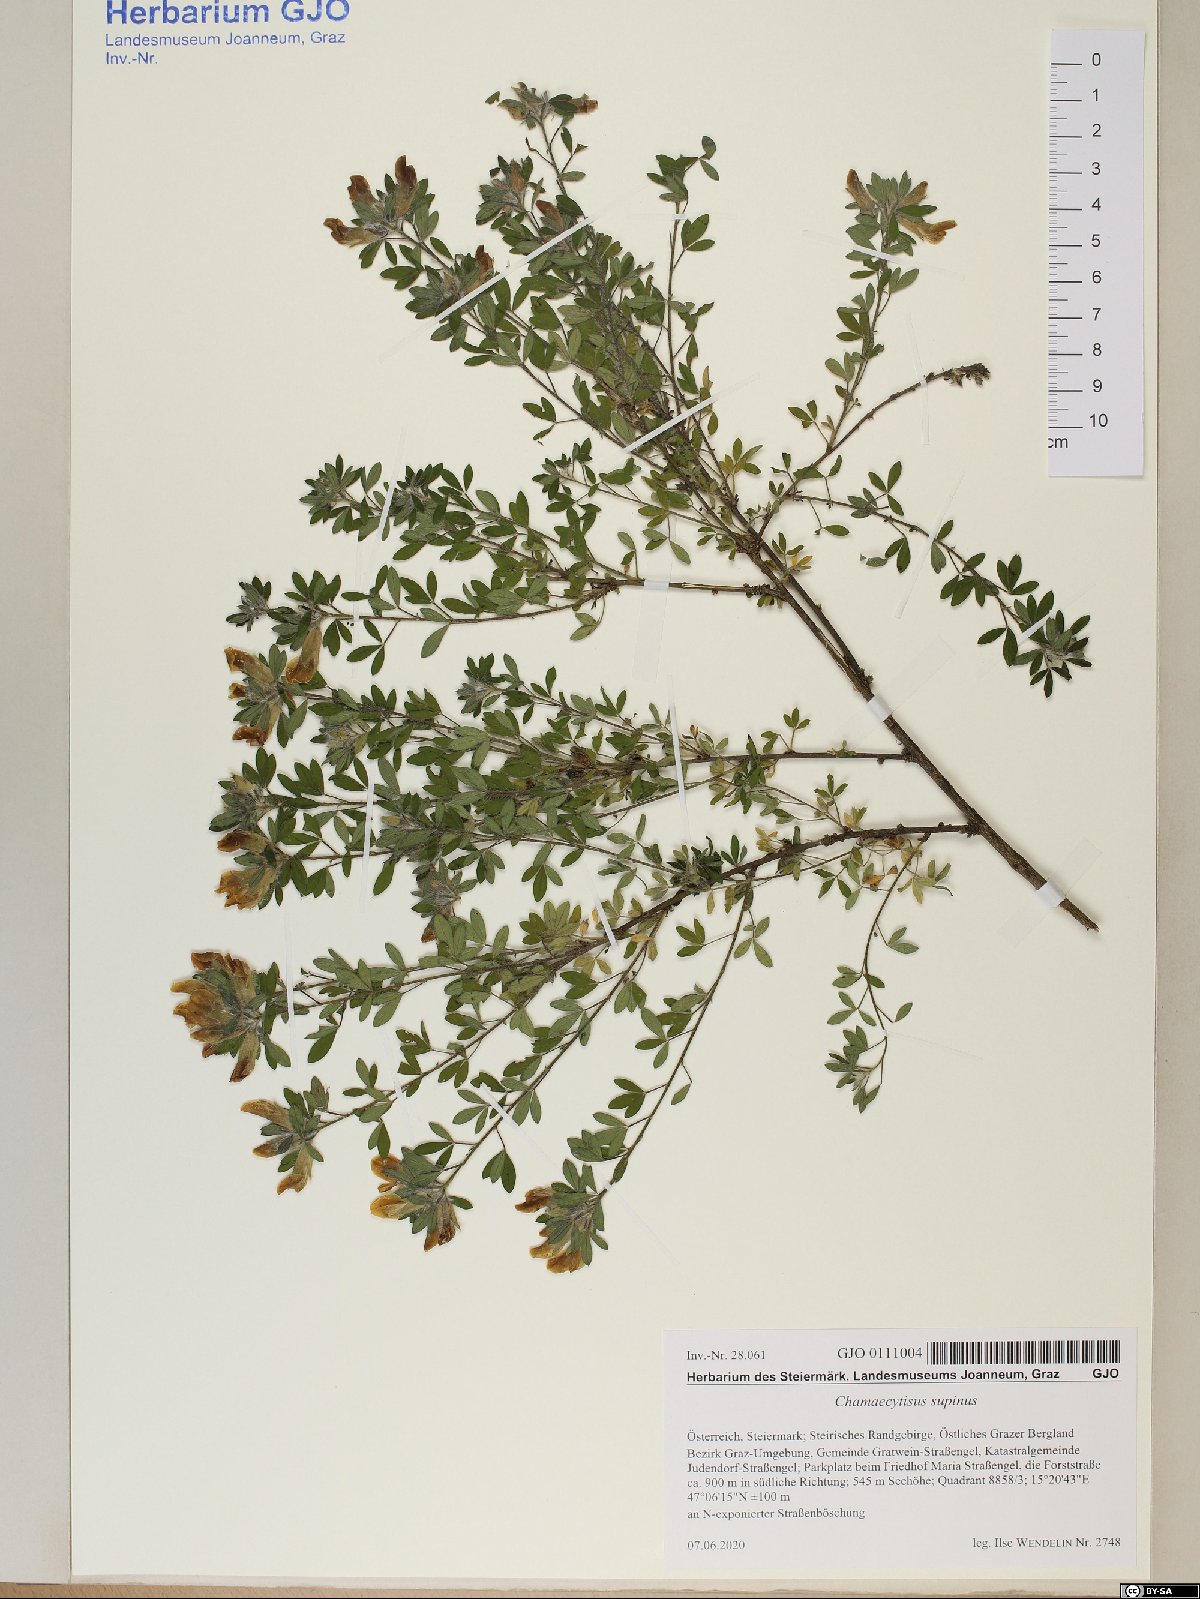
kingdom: Plantae
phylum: Tracheophyta
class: Magnoliopsida
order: Fabales
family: Fabaceae
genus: Chamaecytisus
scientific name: Chamaecytisus supinus
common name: Clustered broom
